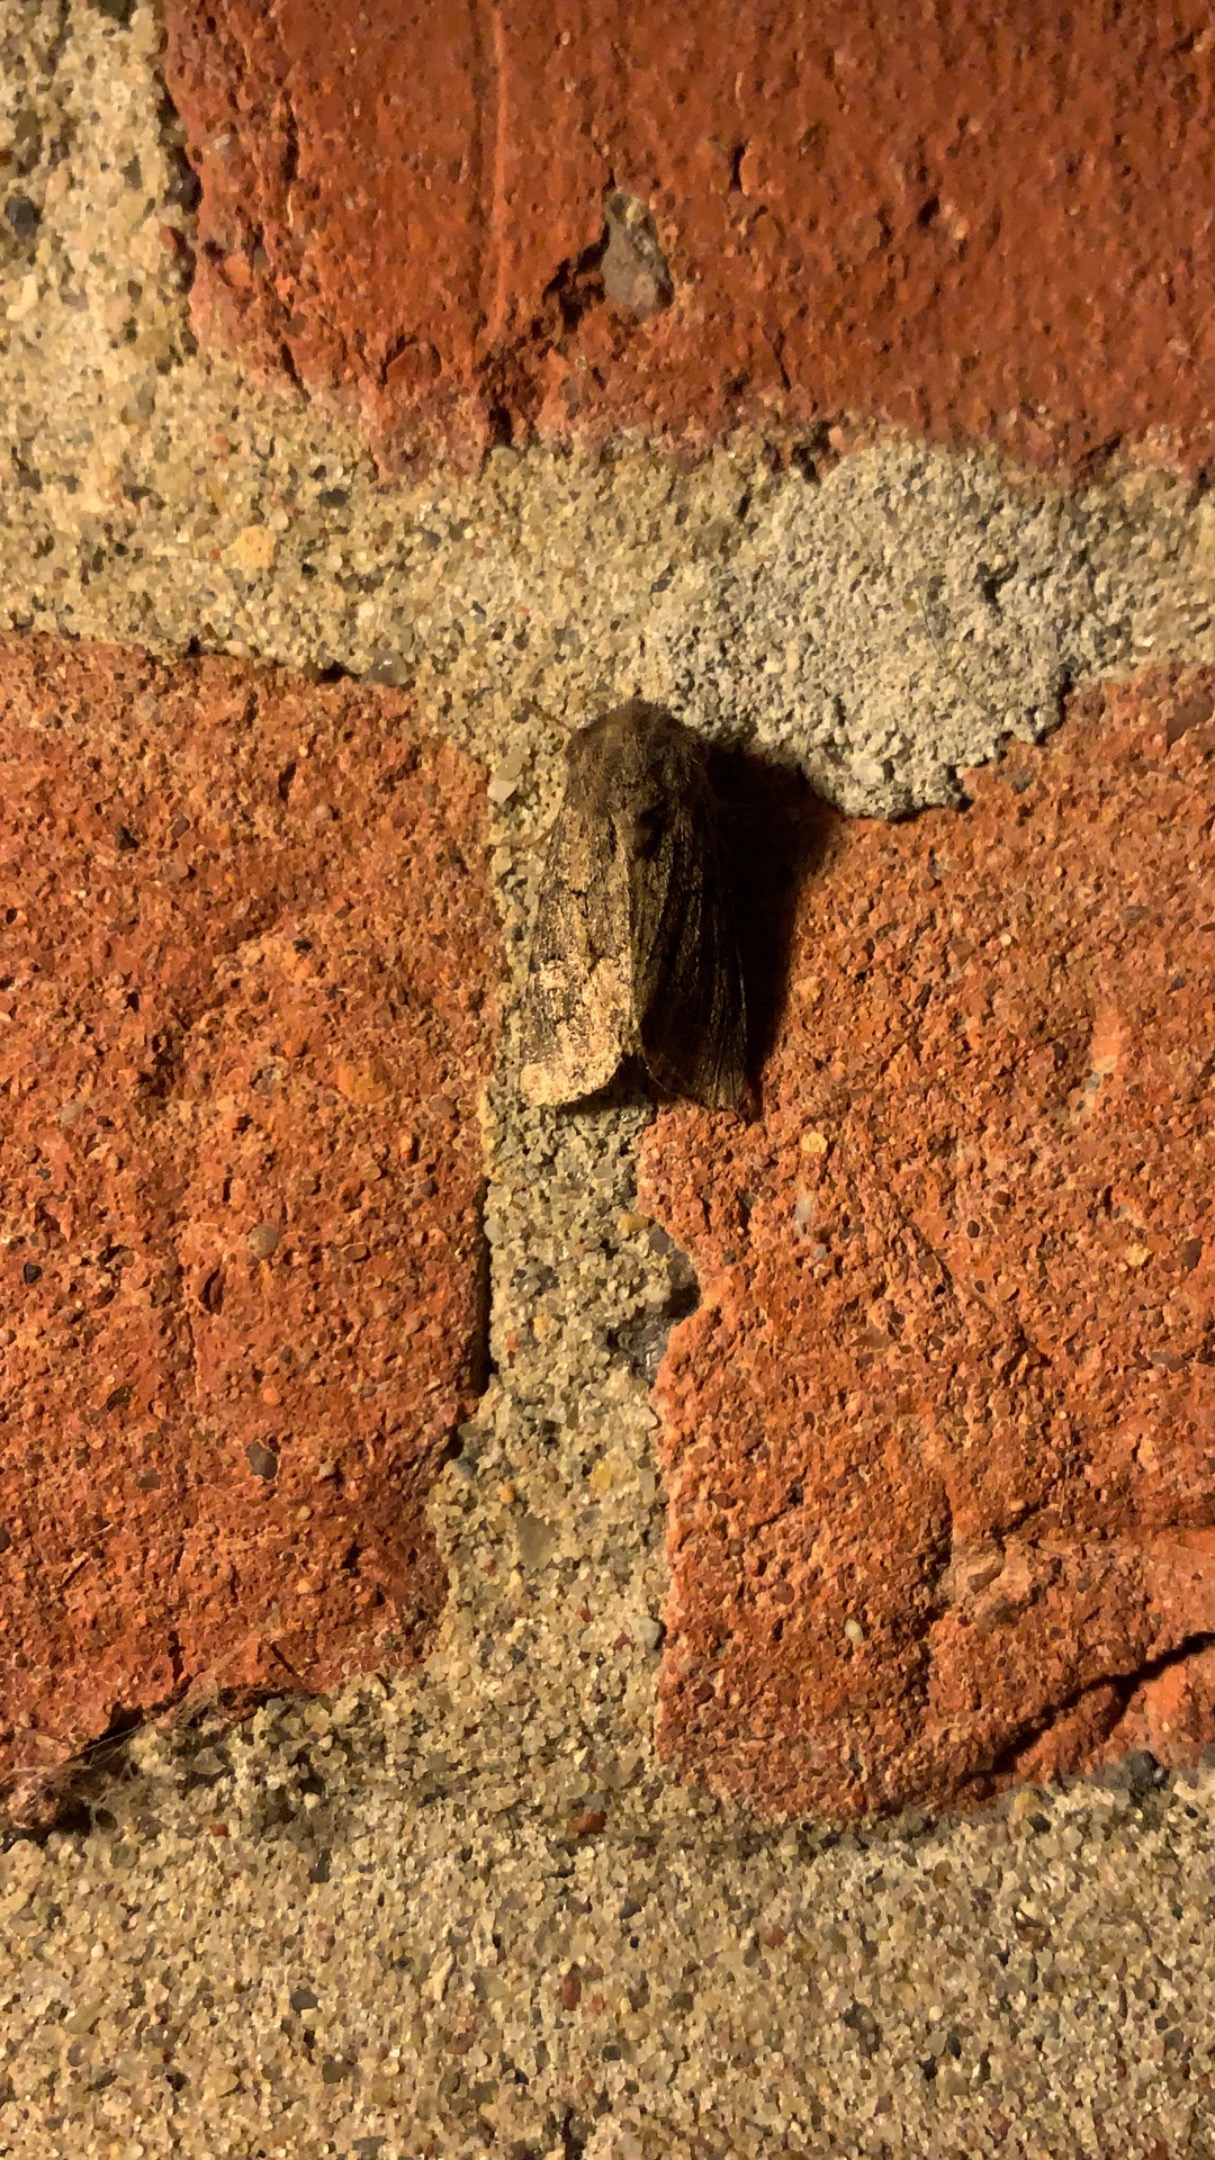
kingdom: Animalia
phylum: Arthropoda
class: Insecta
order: Lepidoptera
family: Noctuidae
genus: Luperina
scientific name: Luperina testacea
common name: Frøgræsugle
